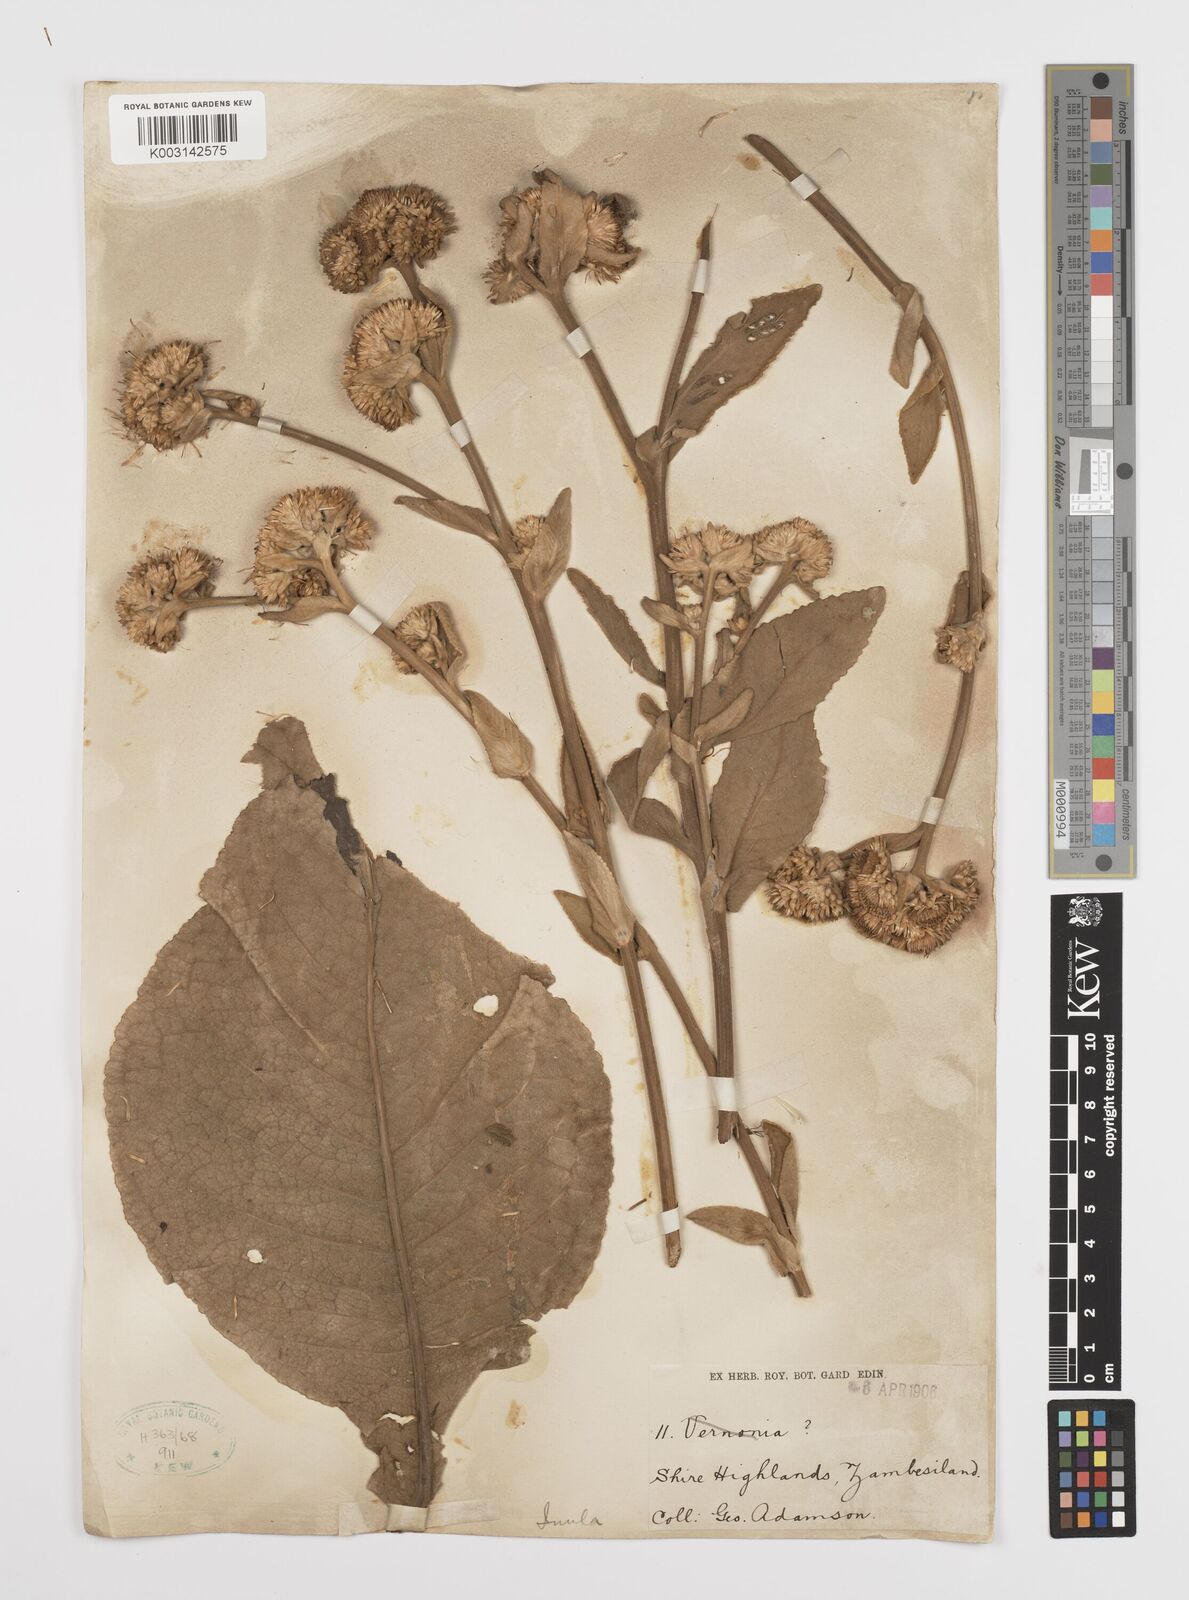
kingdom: Plantae
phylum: Tracheophyta
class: Magnoliopsida
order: Asterales
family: Asteraceae
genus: Inula
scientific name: Inula glomerata
